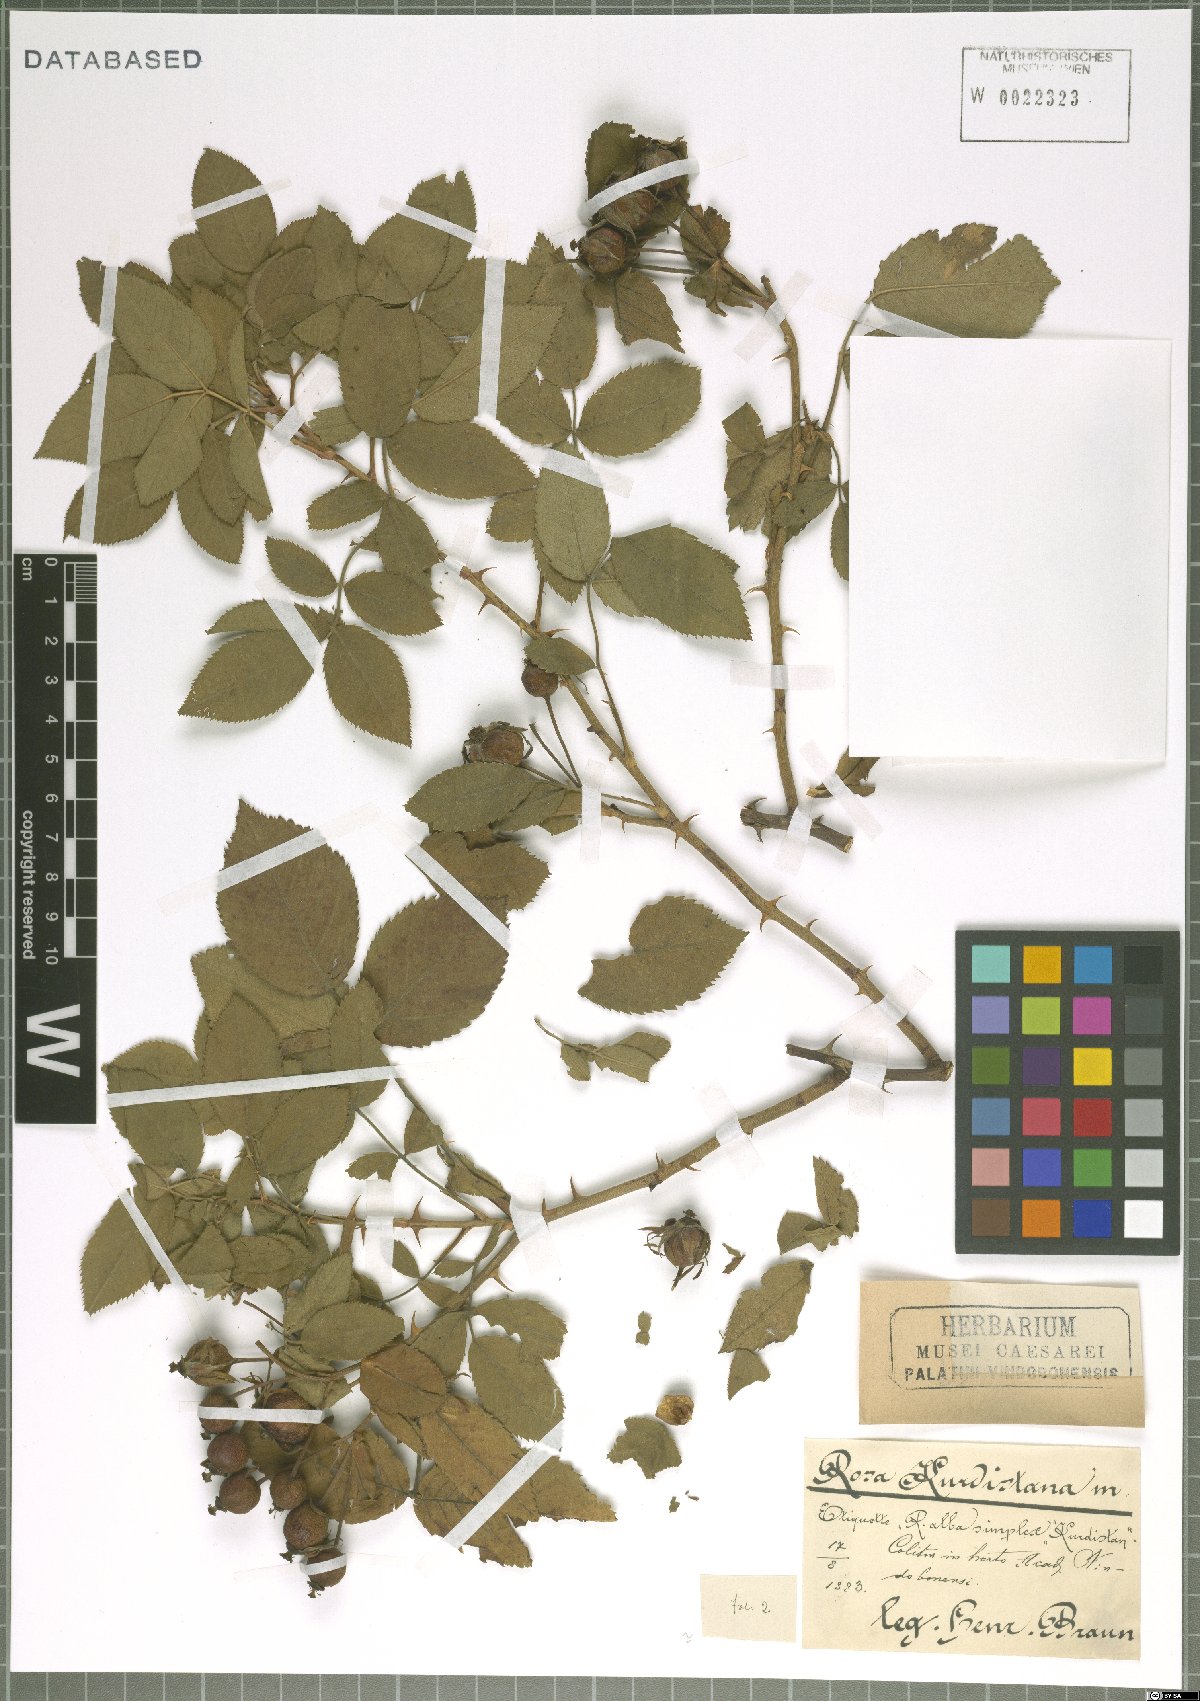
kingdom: Plantae
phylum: Tracheophyta
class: Magnoliopsida
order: Rosales
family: Rosaceae
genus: Rosa
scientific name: Rosa
